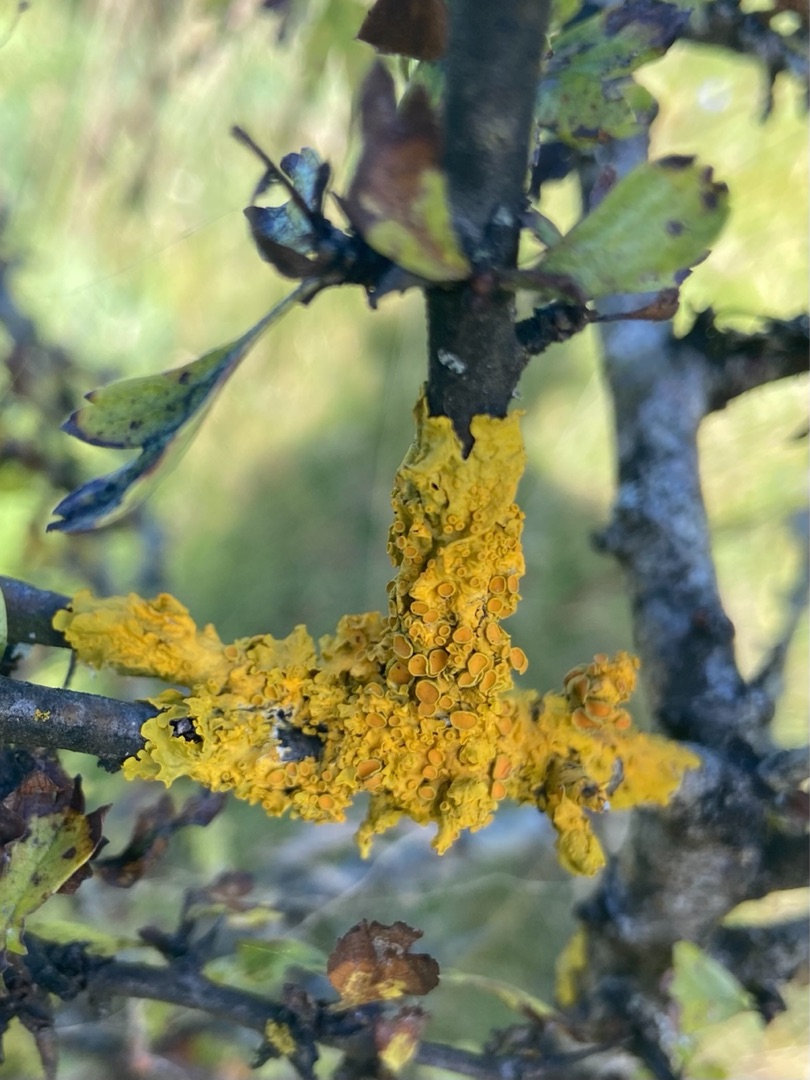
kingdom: Fungi
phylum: Ascomycota
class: Lecanoromycetes
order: Teloschistales
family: Teloschistaceae
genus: Xanthoria
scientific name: Xanthoria parietina
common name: Almindelig væggelav
